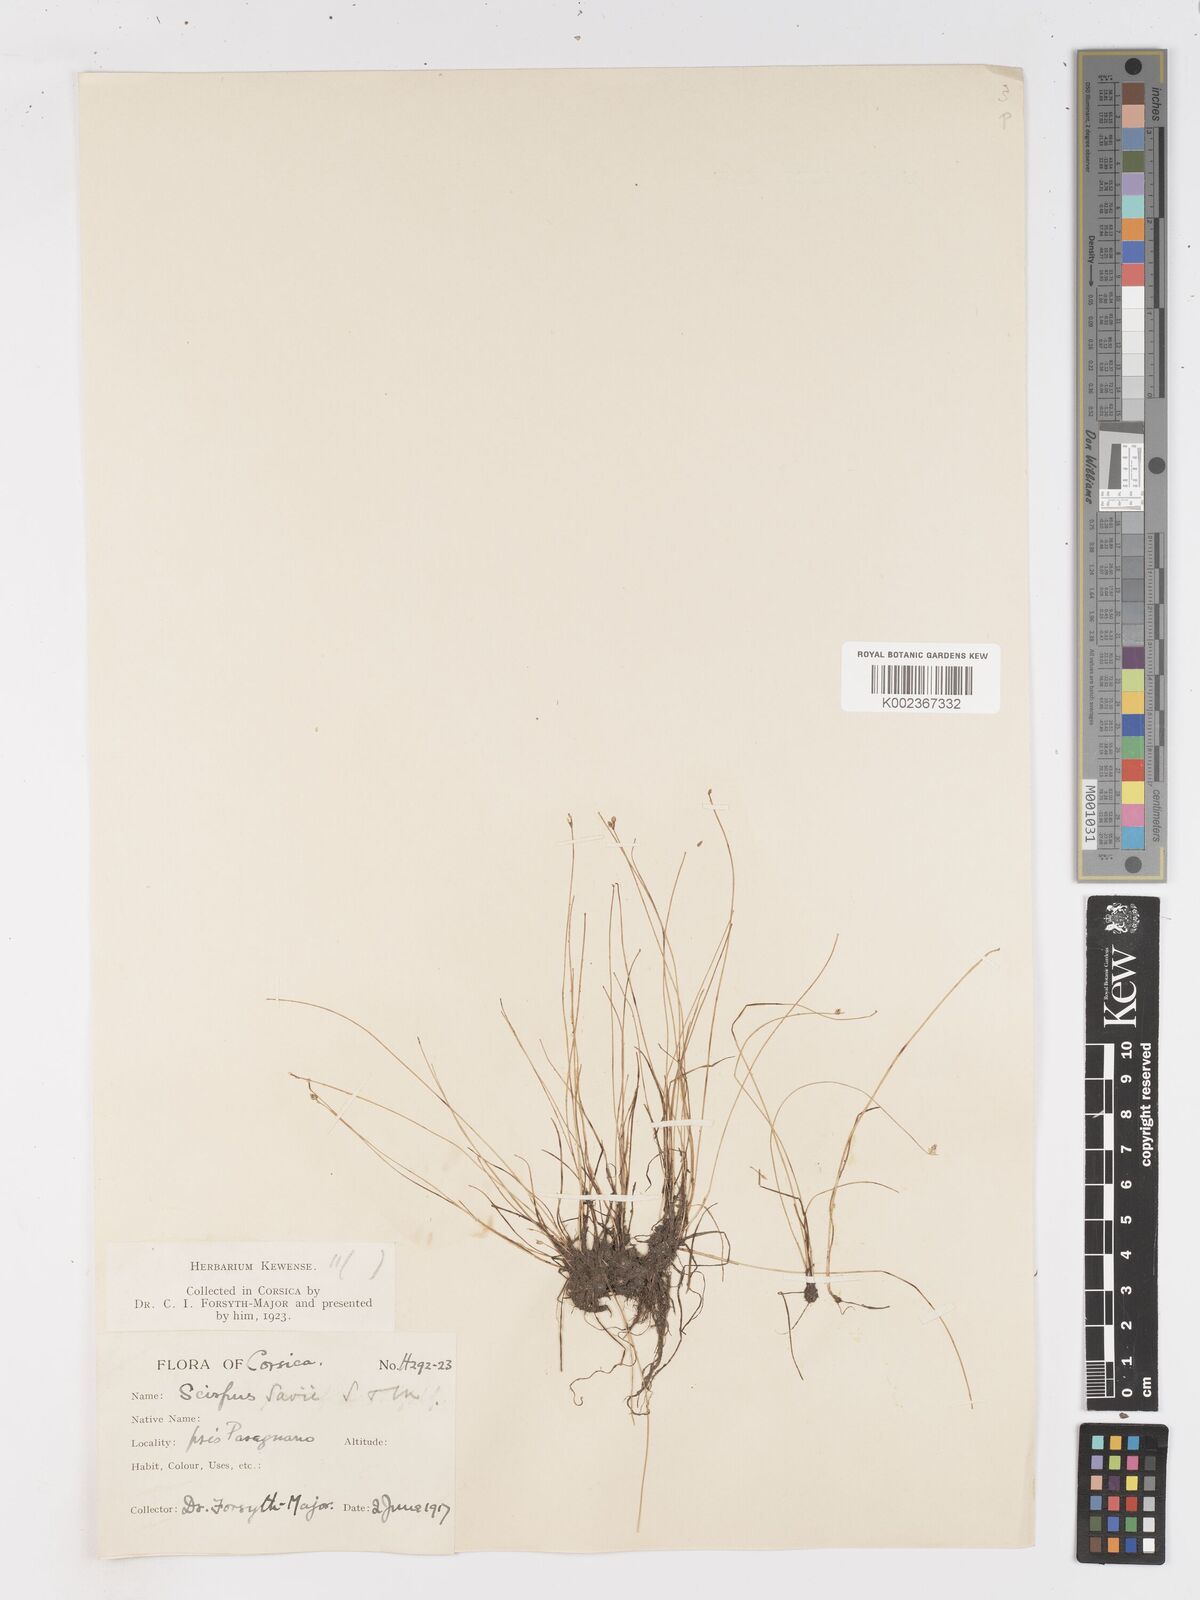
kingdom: Plantae
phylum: Tracheophyta
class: Liliopsida
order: Poales
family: Cyperaceae
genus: Isolepis
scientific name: Isolepis cernua
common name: Slender club-rush
